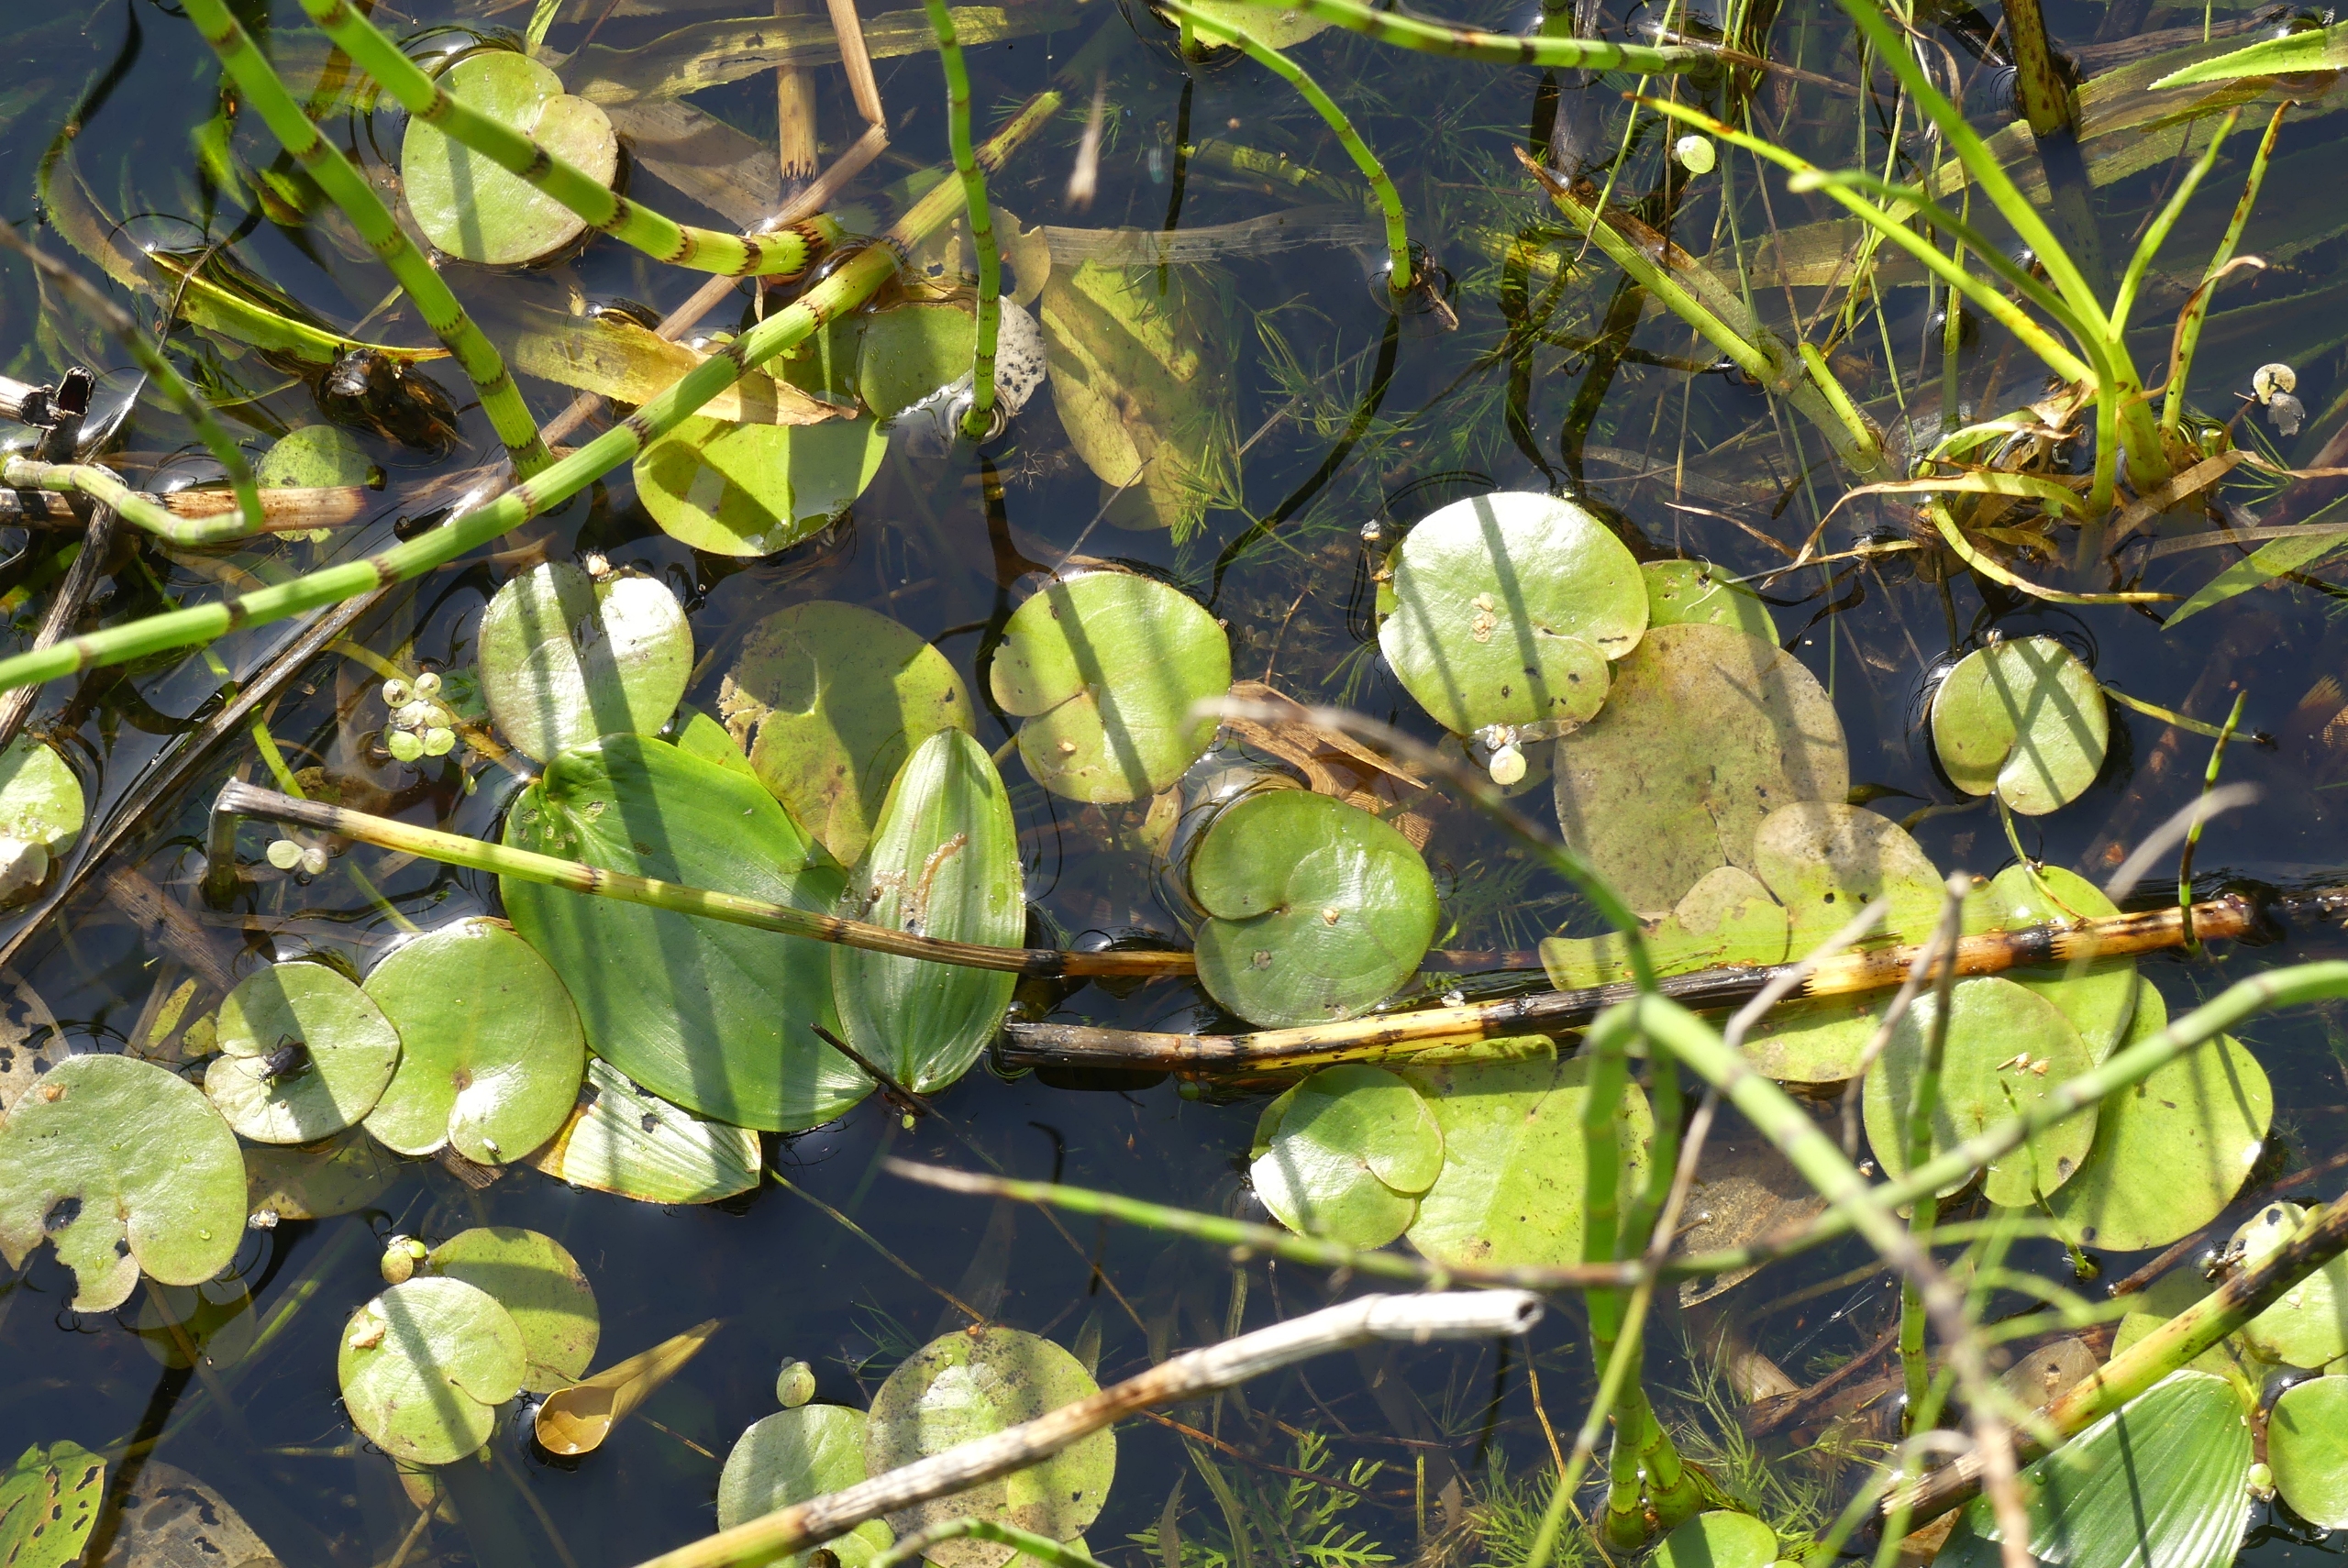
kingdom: Plantae
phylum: Tracheophyta
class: Liliopsida
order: Alismatales
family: Hydrocharitaceae
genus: Hydrocharis
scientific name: Hydrocharis morsus-ranae
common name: Frøbid
